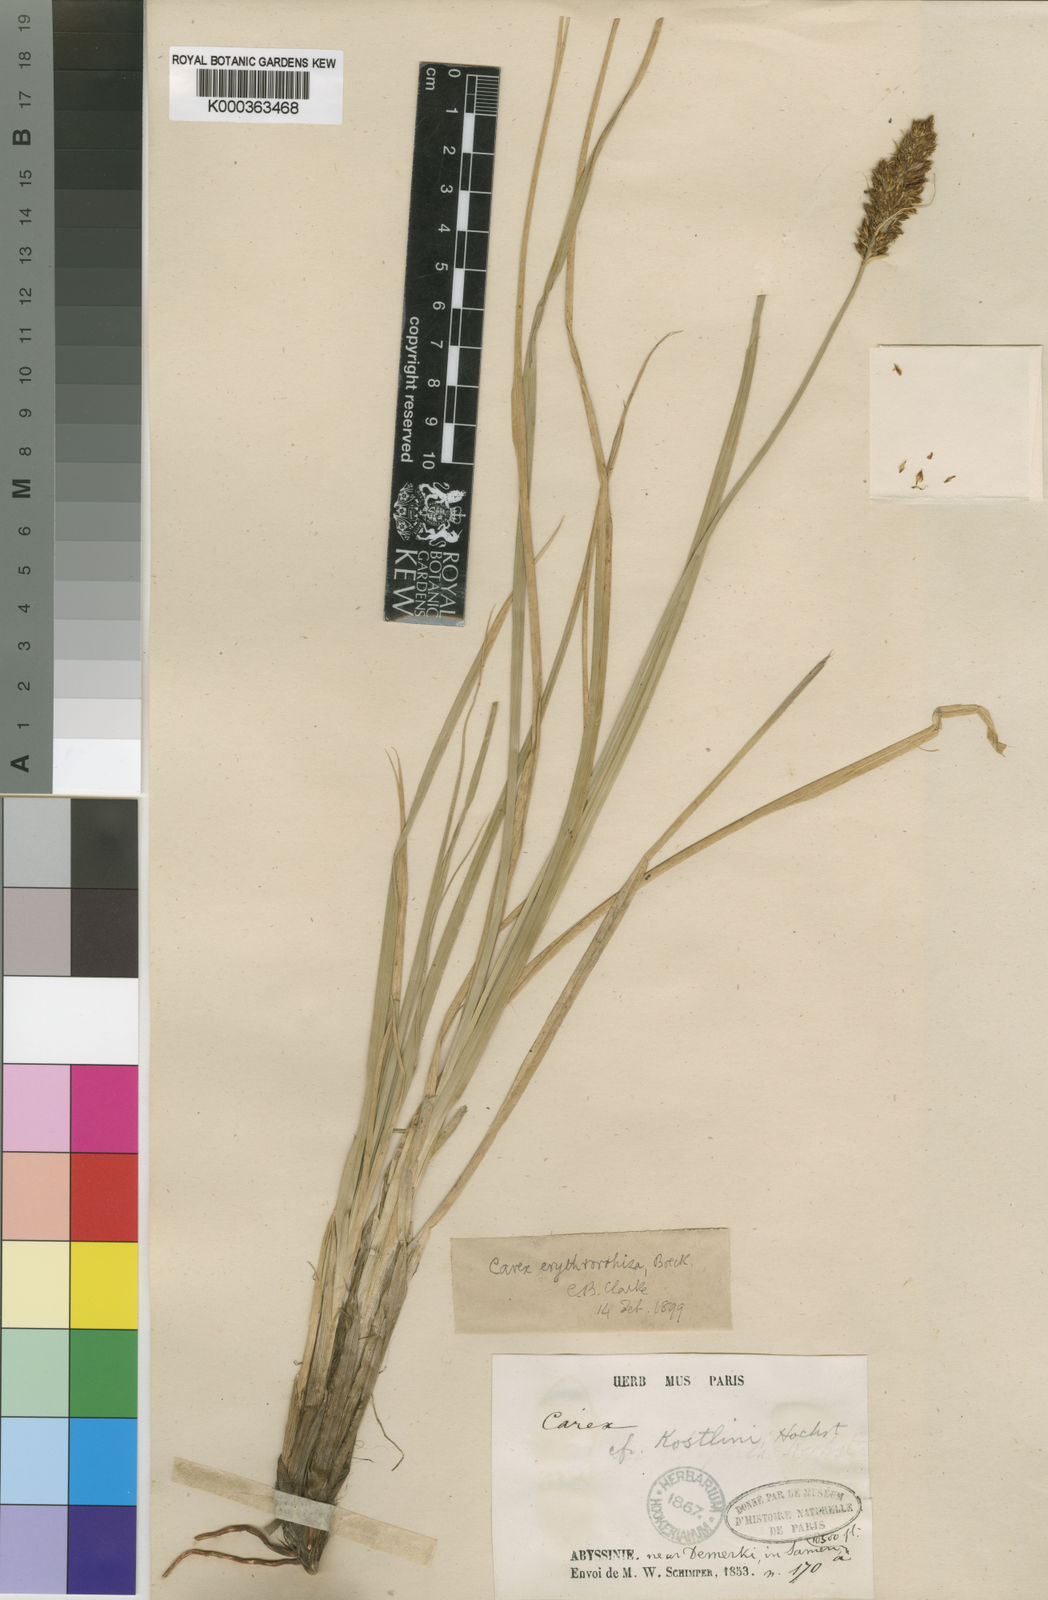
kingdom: Plantae
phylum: Tracheophyta
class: Liliopsida
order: Poales
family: Cyperaceae
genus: Carex
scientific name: Carex erythrorrhiza
